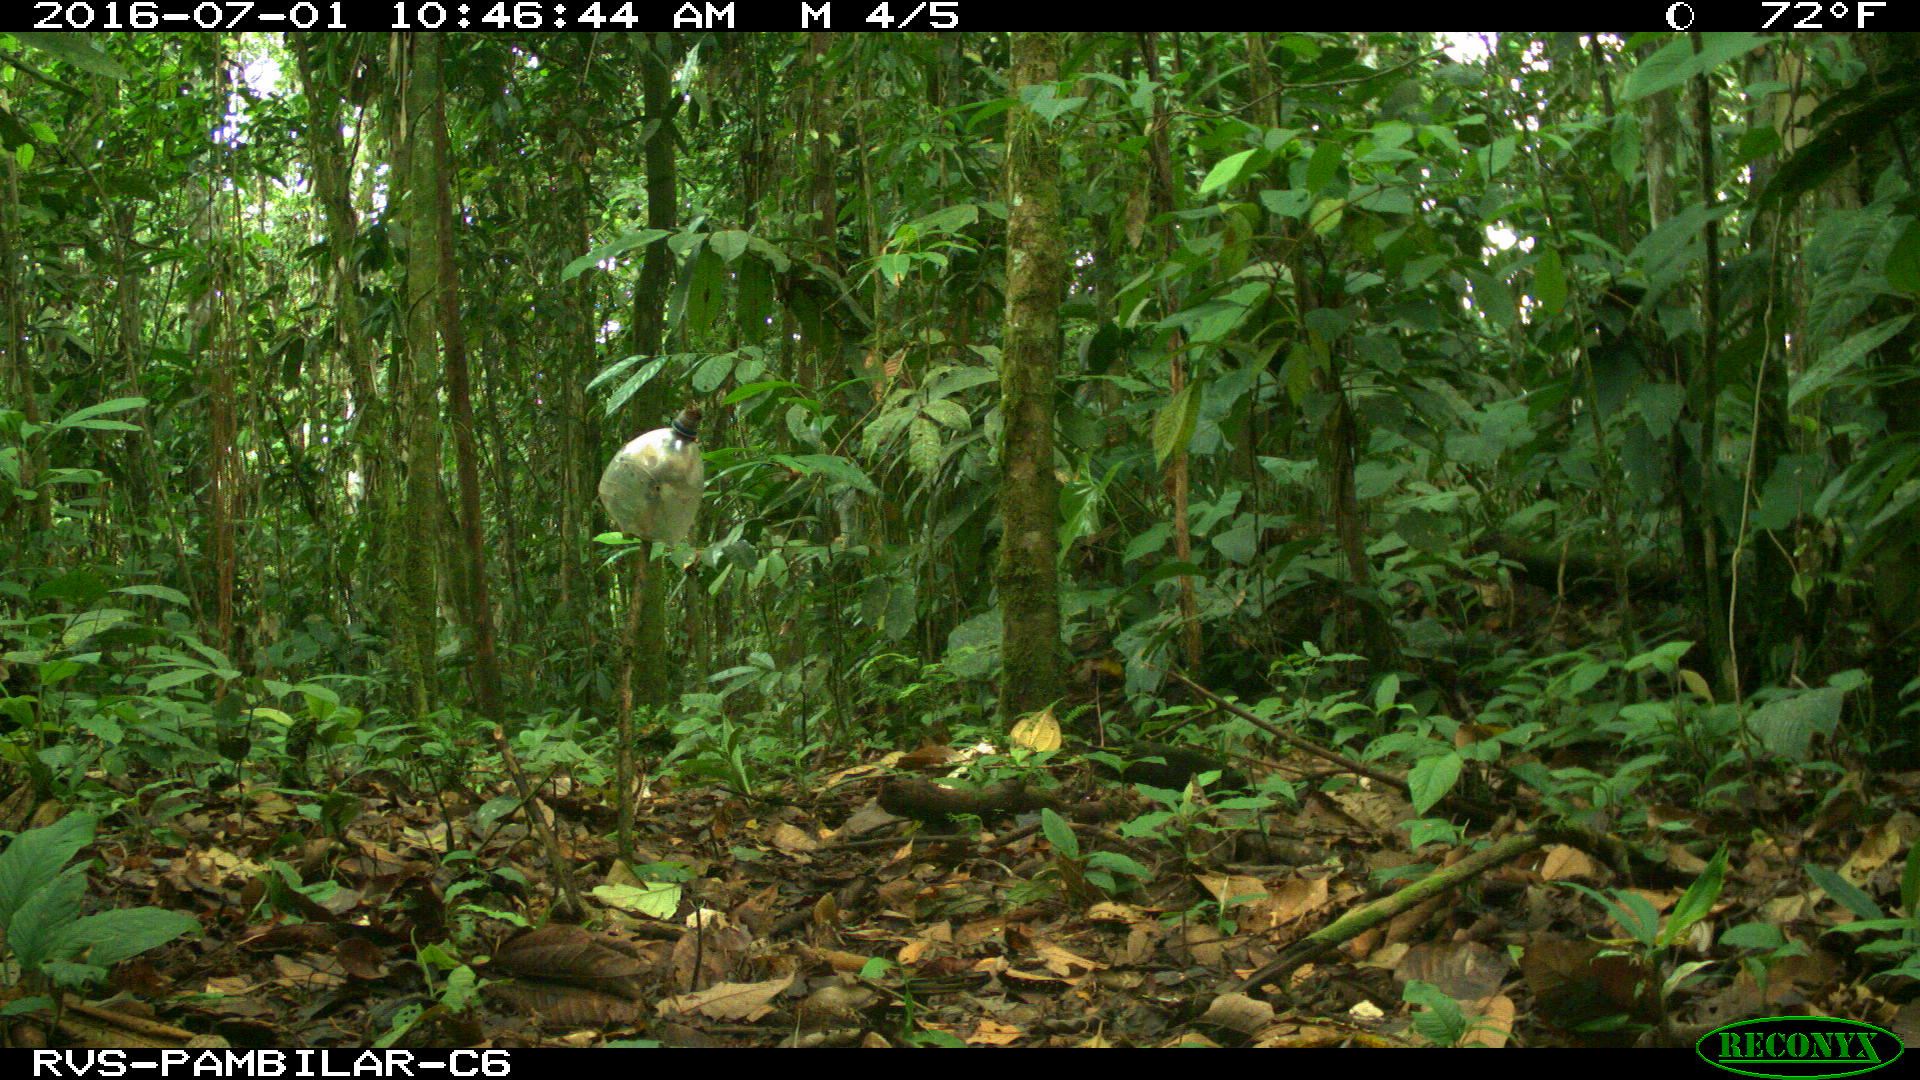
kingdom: Animalia
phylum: Chordata
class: Mammalia
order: Rodentia
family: Dasyproctidae
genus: Dasyprocta
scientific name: Dasyprocta punctata
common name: Central american agouti
